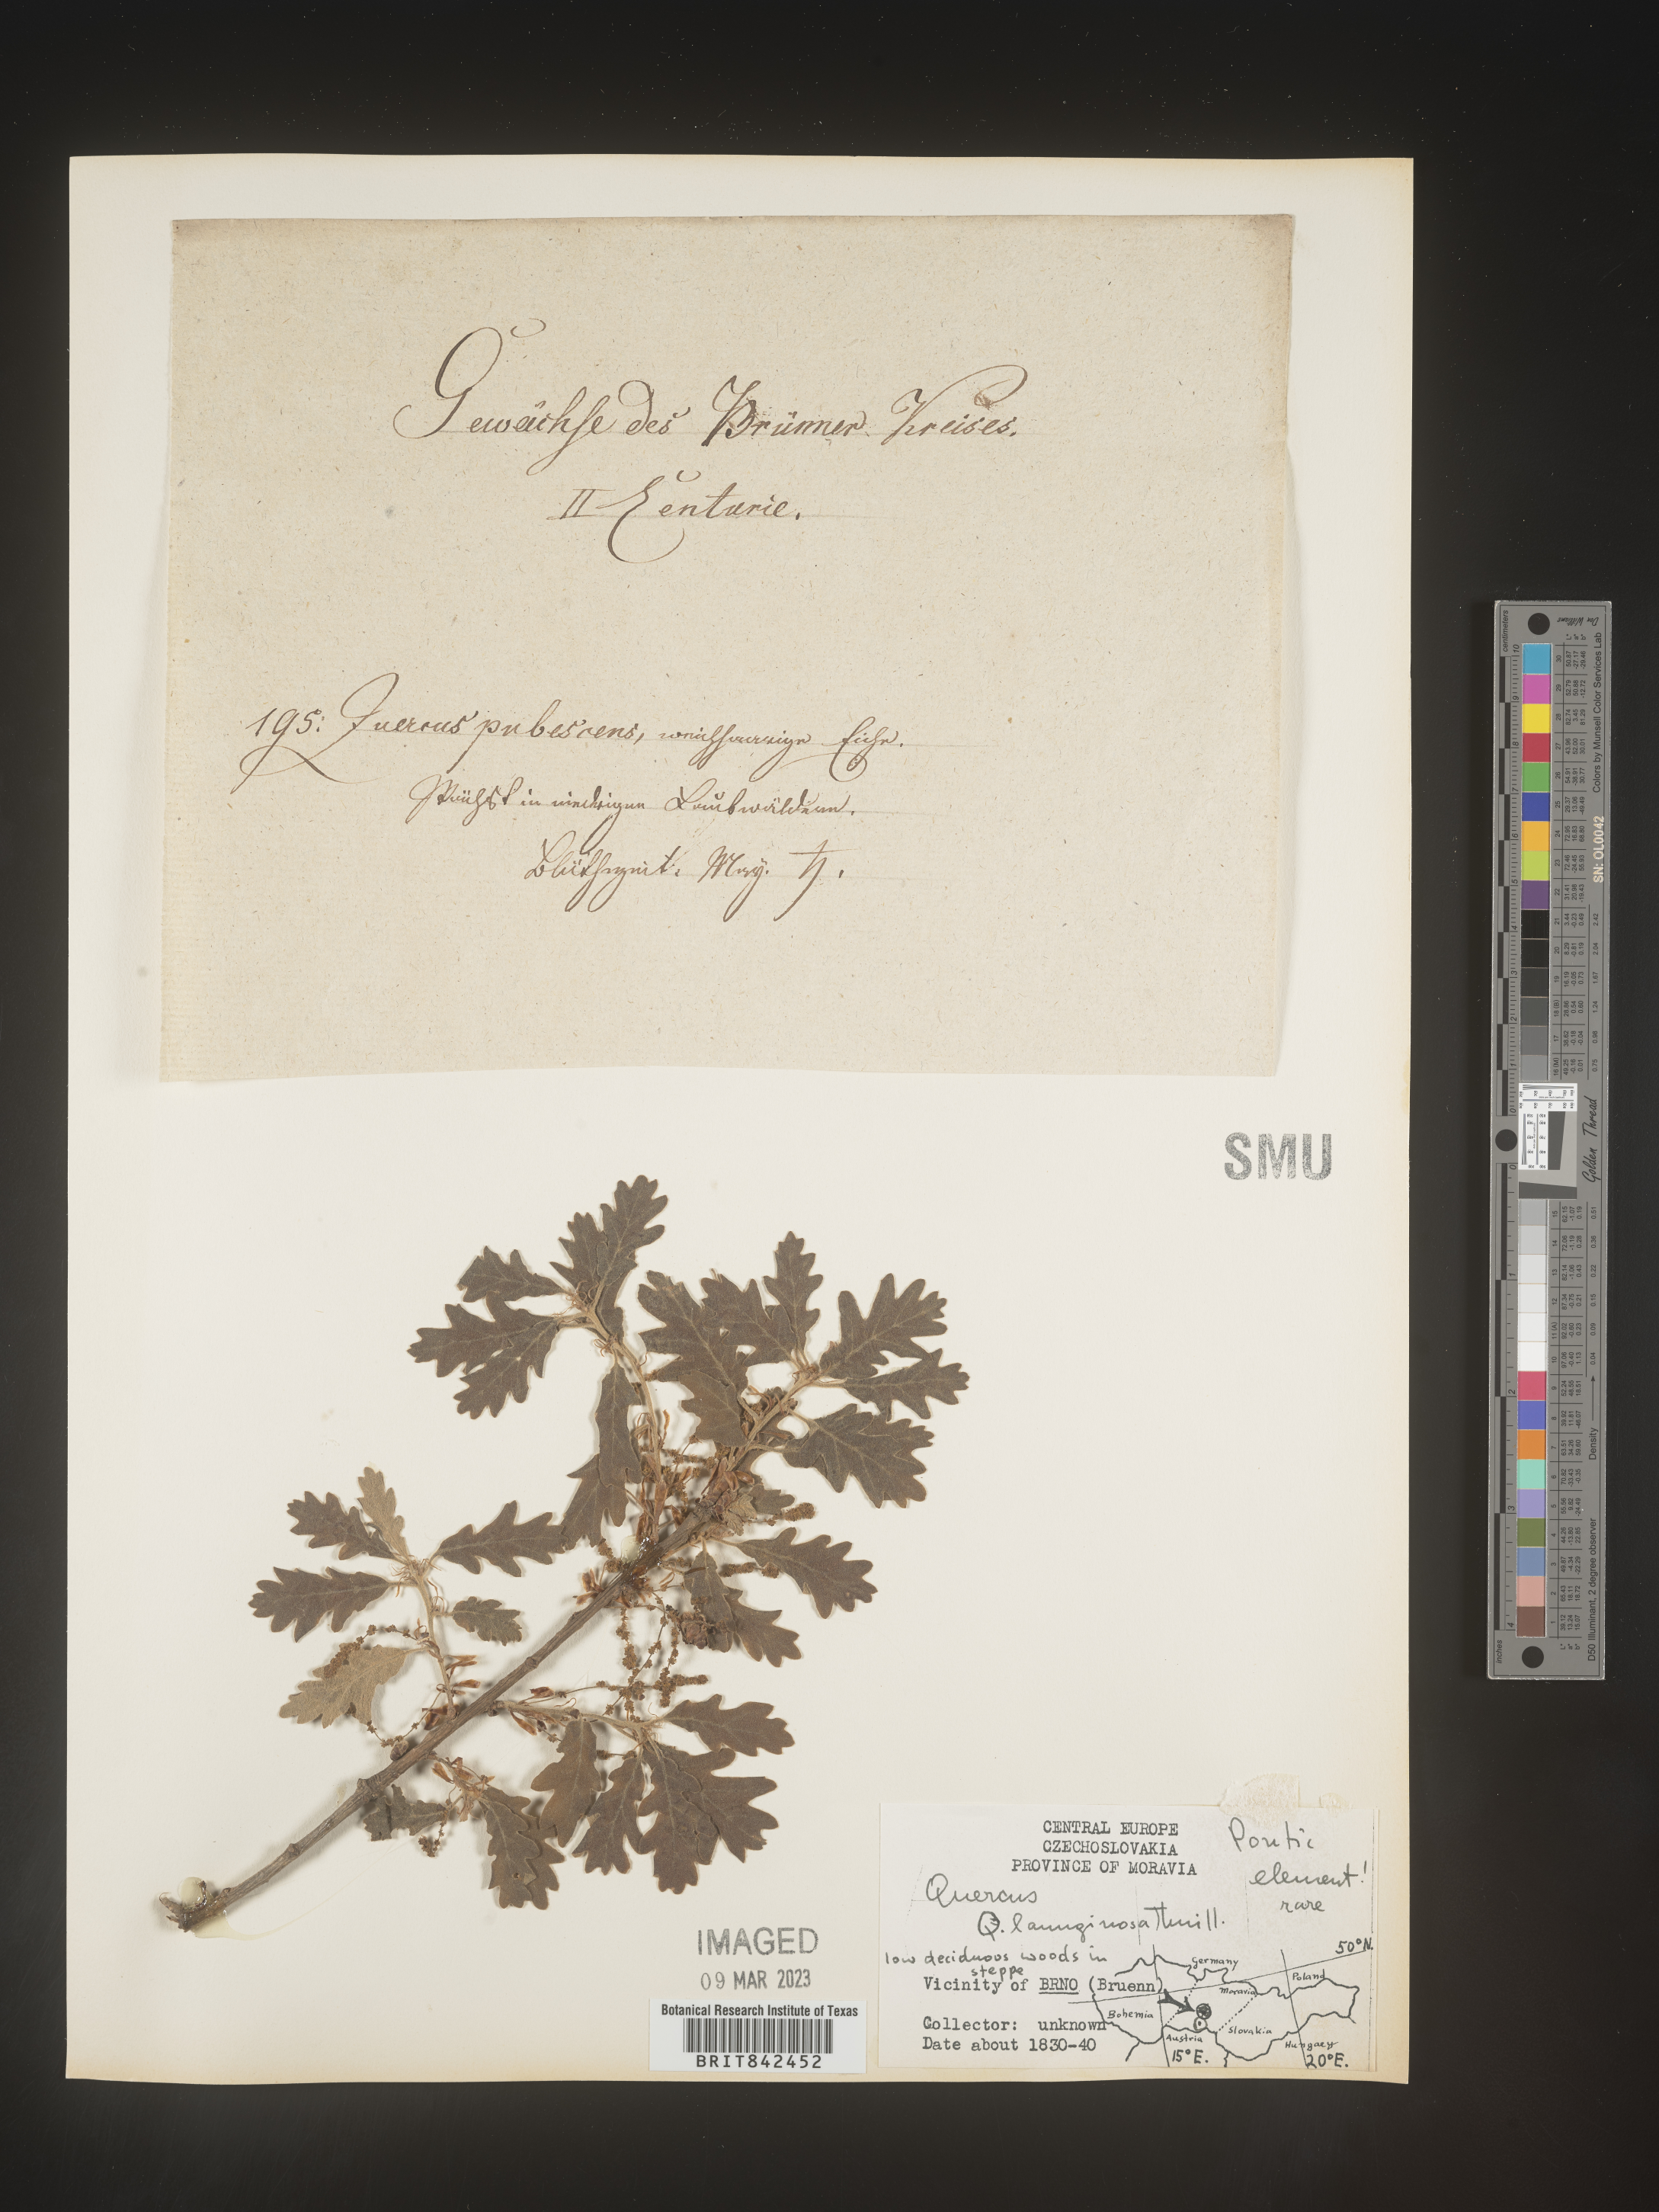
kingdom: Plantae
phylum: Tracheophyta
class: Magnoliopsida
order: Fagales
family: Fagaceae
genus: Quercus
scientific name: Quercus
